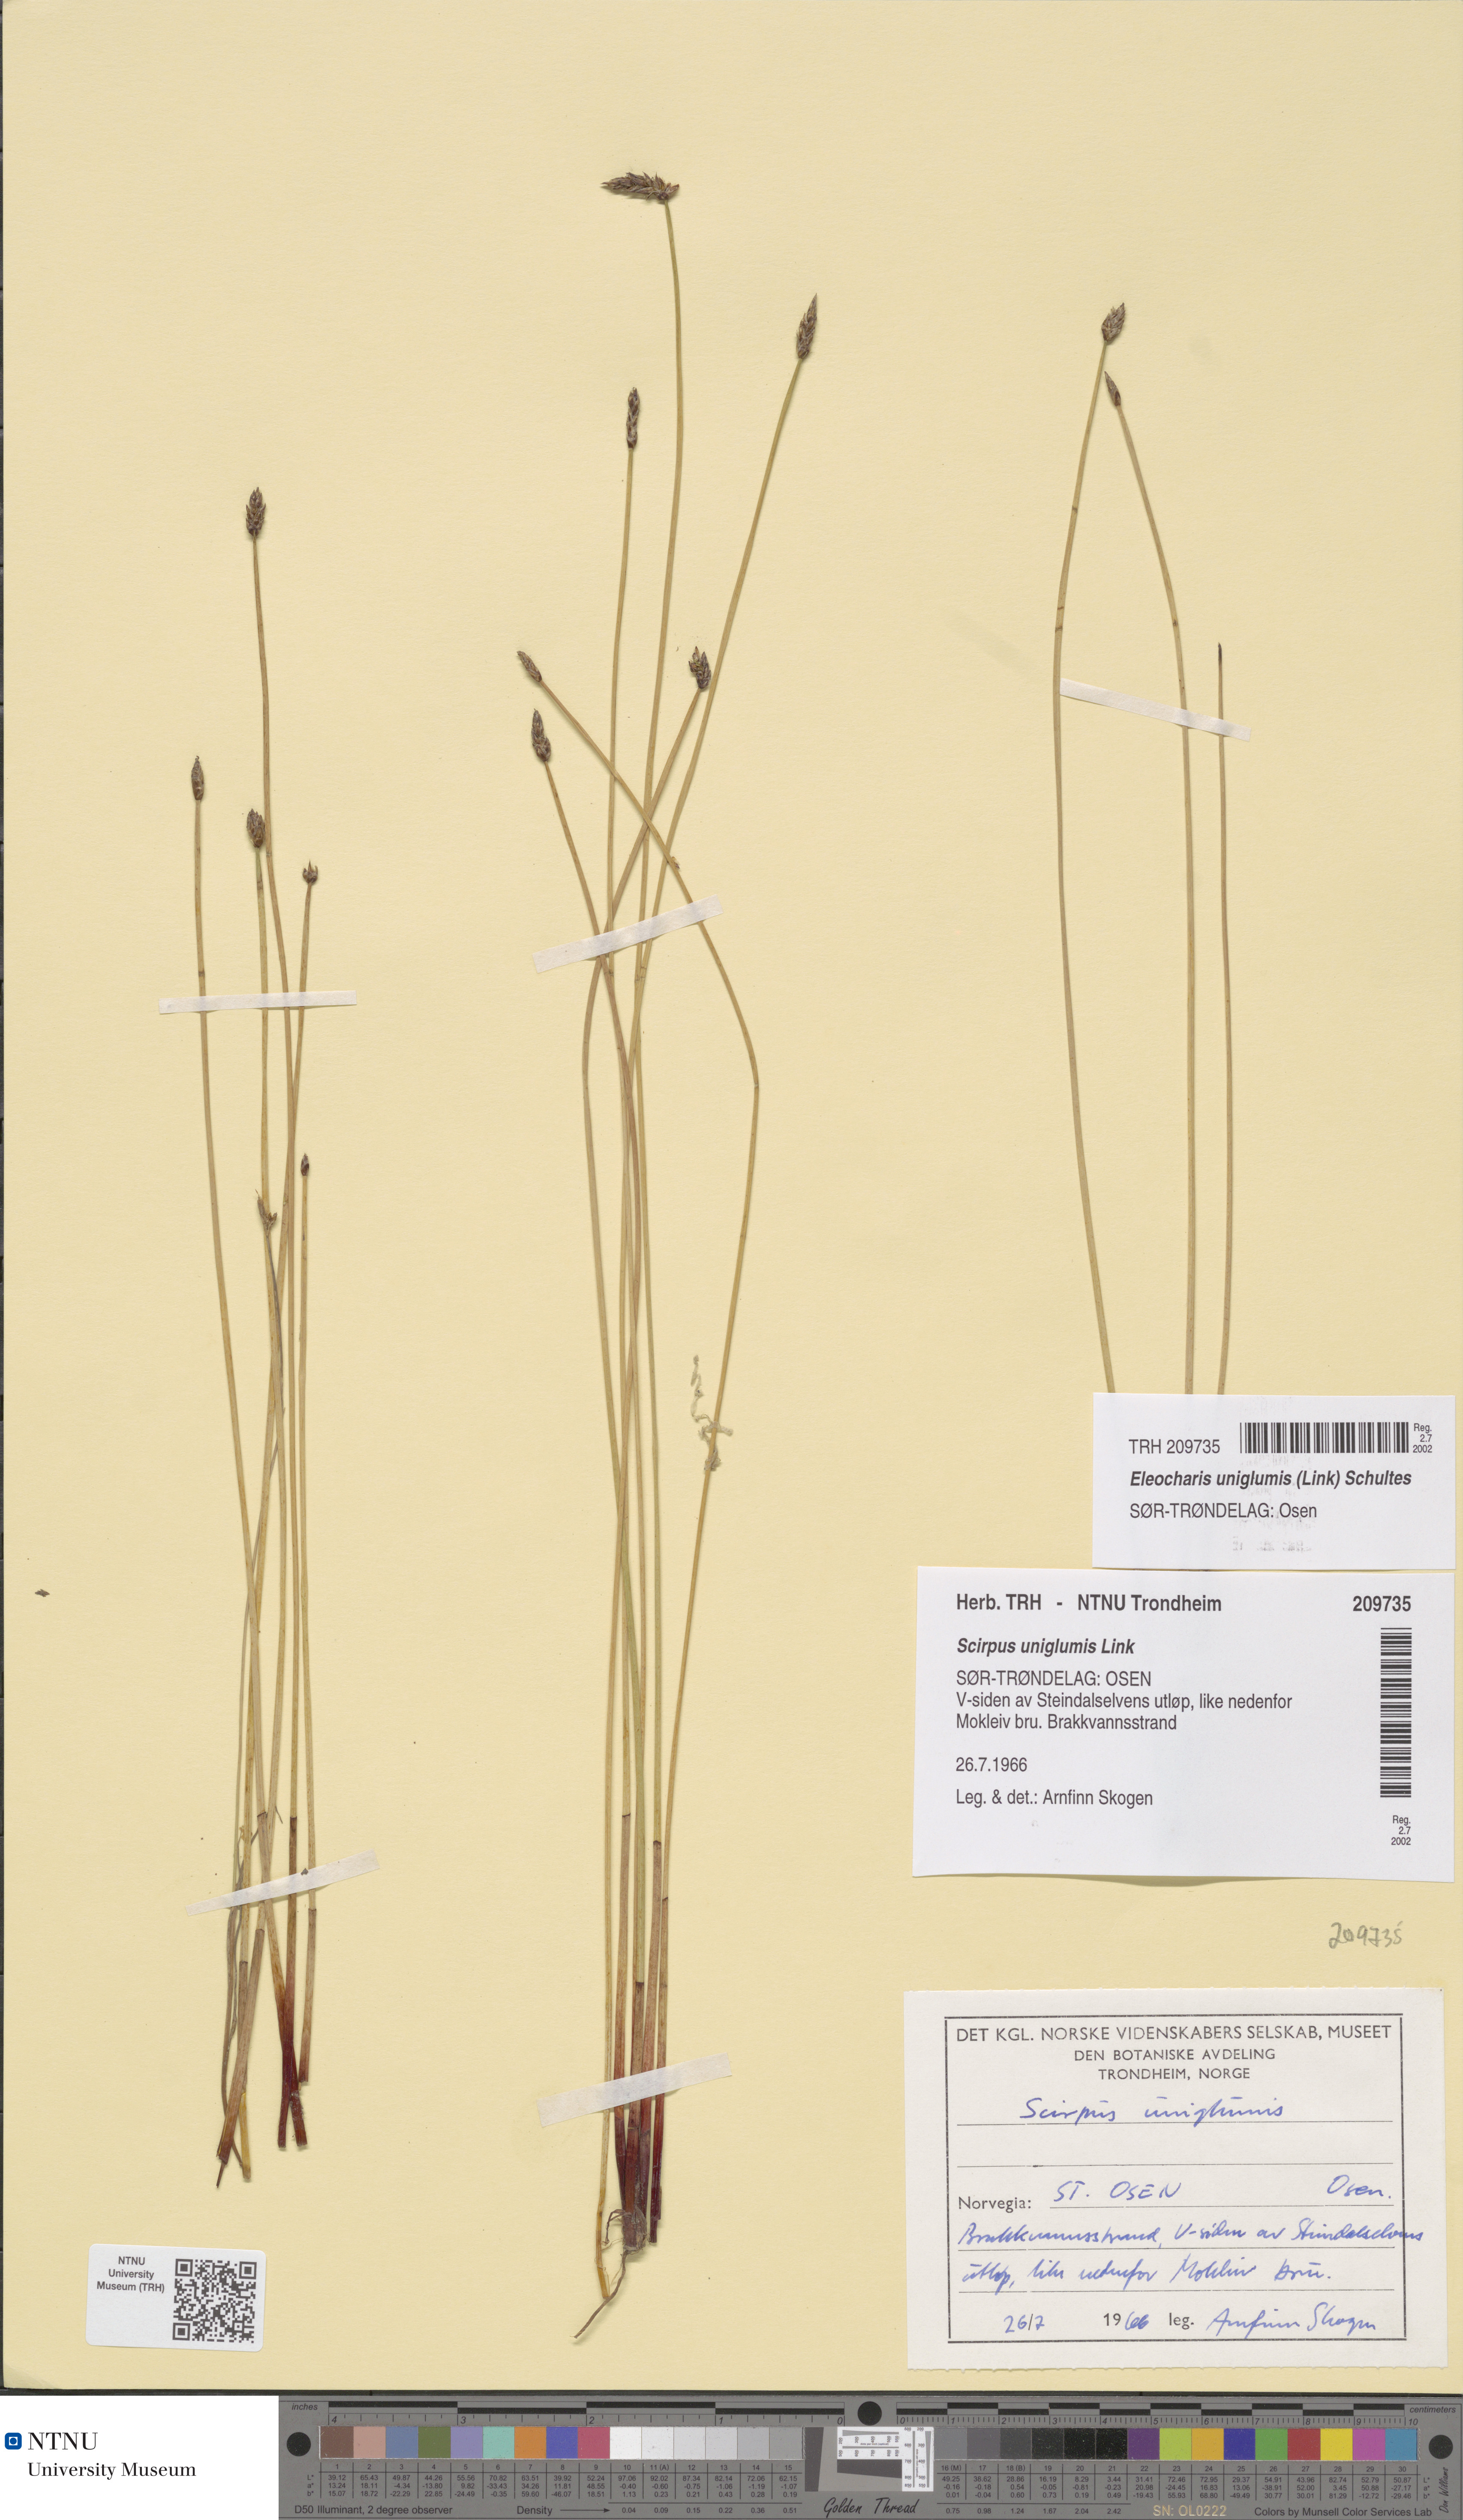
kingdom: Plantae
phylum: Tracheophyta
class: Liliopsida
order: Poales
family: Cyperaceae
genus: Eleocharis
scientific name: Eleocharis uniglumis
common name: Slender spike-rush
